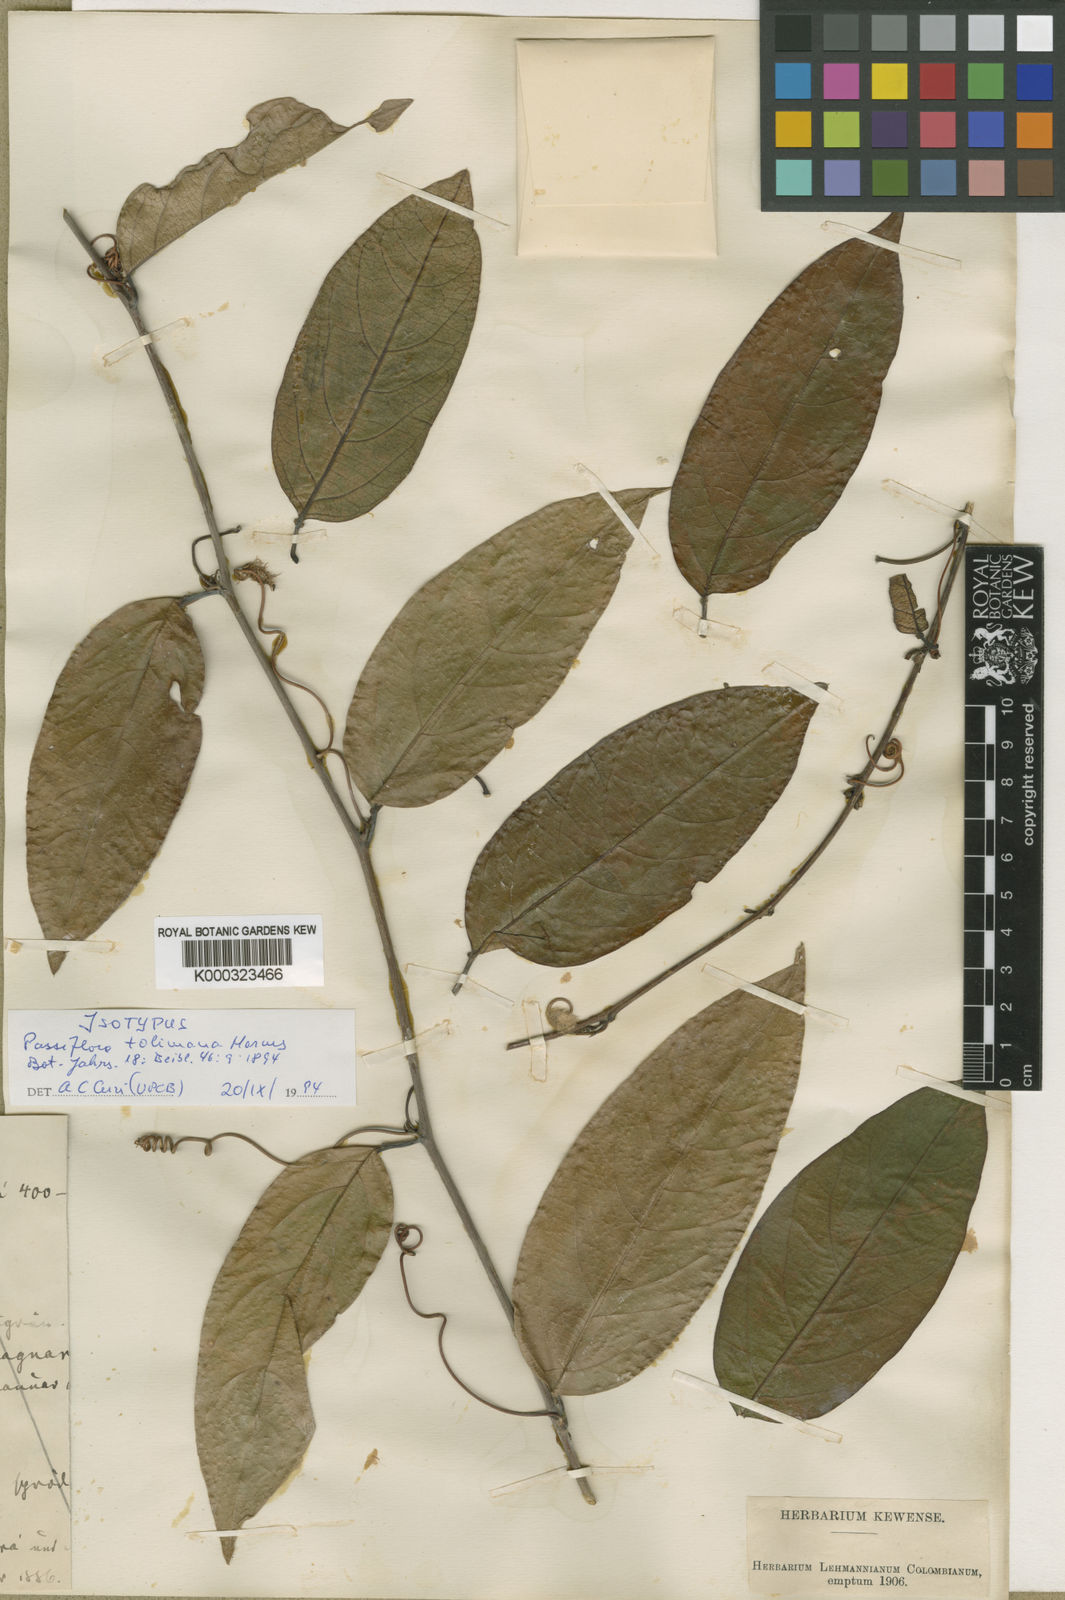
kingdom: Plantae
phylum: Tracheophyta
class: Magnoliopsida
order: Malpighiales
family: Passifloraceae
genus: Passiflora
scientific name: Passiflora acuminata
